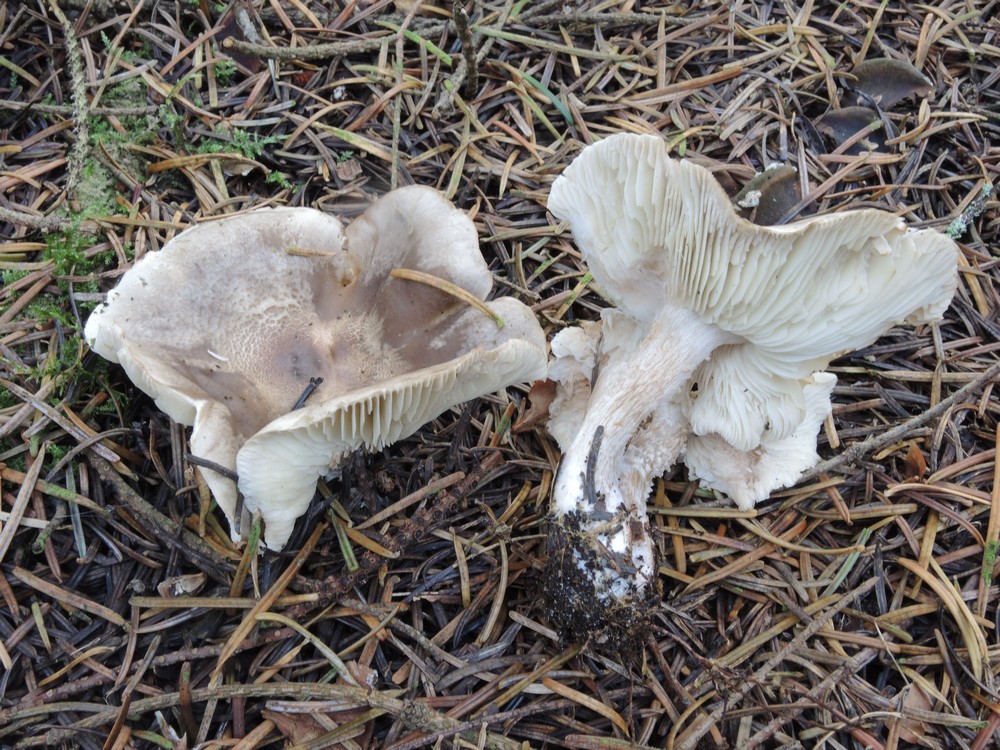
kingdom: Fungi
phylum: Basidiomycota
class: Agaricomycetes
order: Agaricales
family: Tricholomataceae
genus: Tricholoma
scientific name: Tricholoma sudum
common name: tør ridderhat
